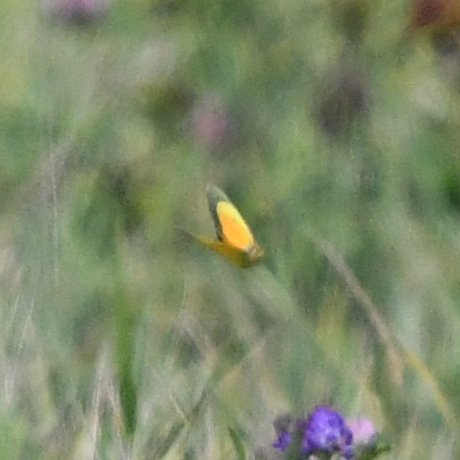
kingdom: Animalia
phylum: Arthropoda
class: Insecta
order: Lepidoptera
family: Pieridae
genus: Colias
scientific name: Colias eurytheme
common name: Orange Sulphur
